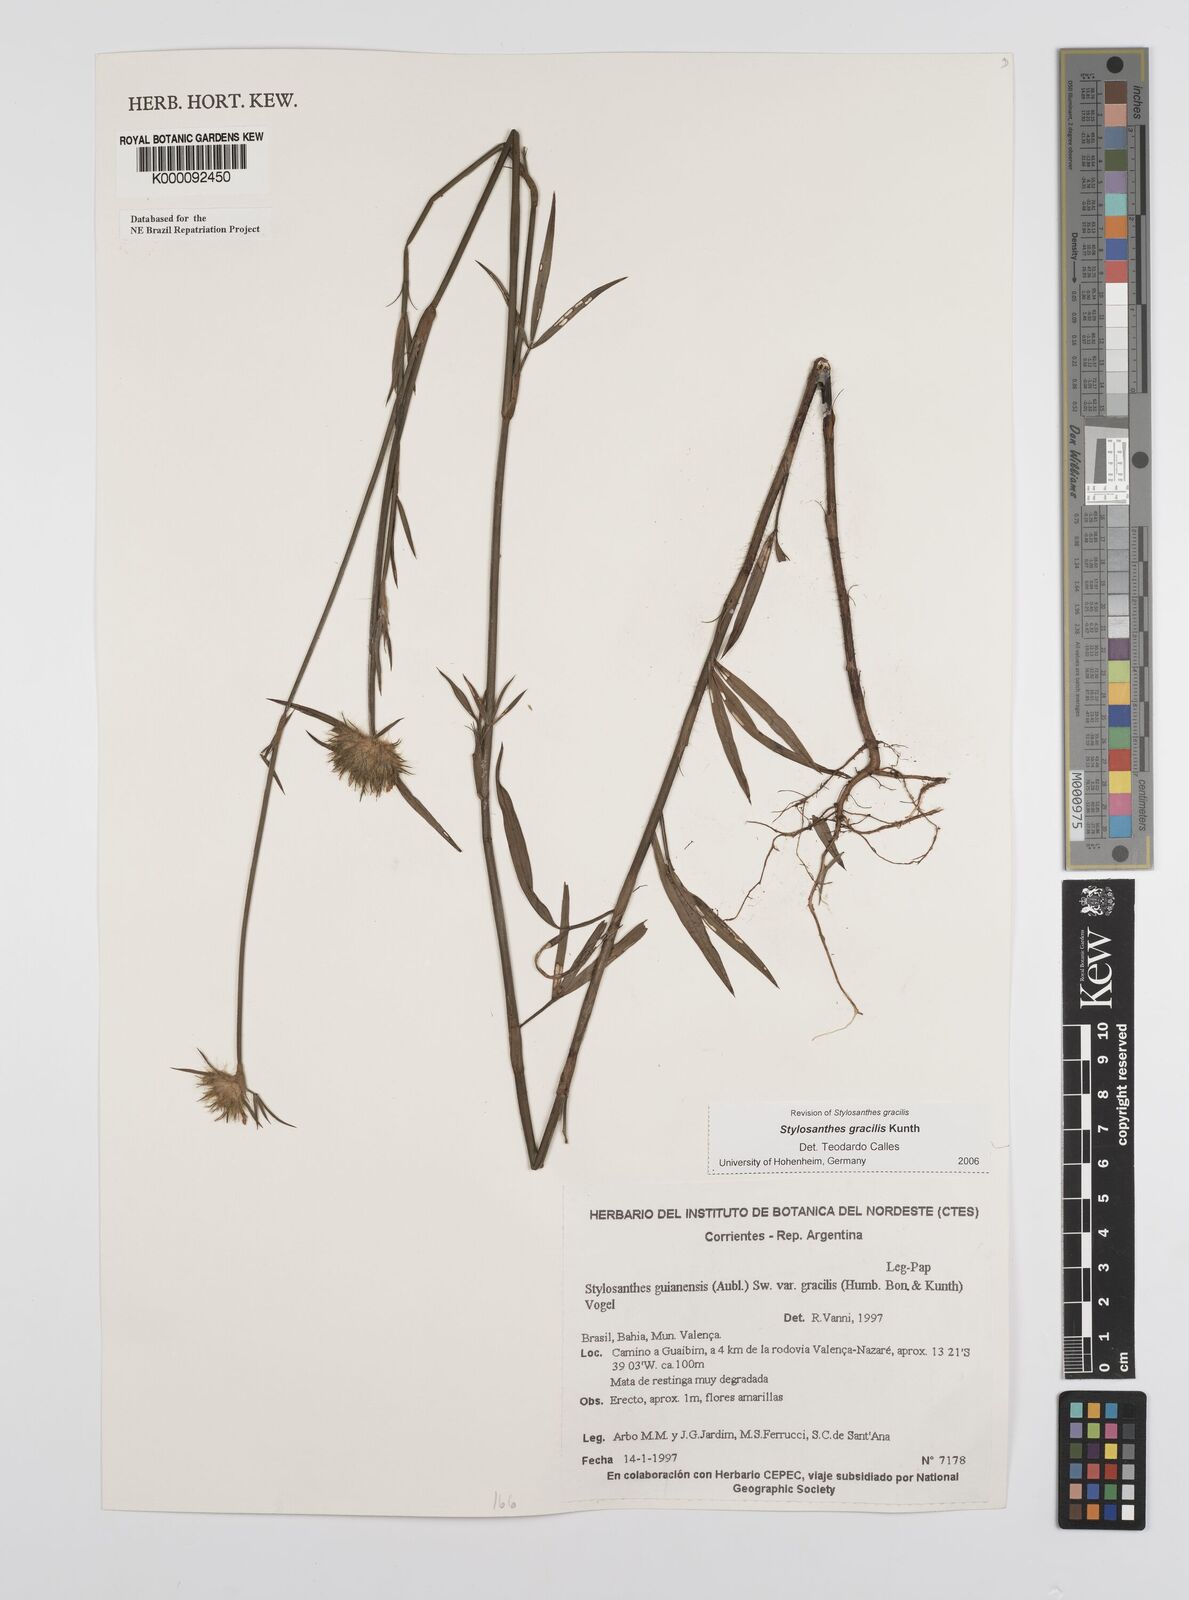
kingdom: Plantae
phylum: Tracheophyta
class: Magnoliopsida
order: Fabales
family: Fabaceae
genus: Stylosanthes
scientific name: Stylosanthes guianensis
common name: Pencil flower
